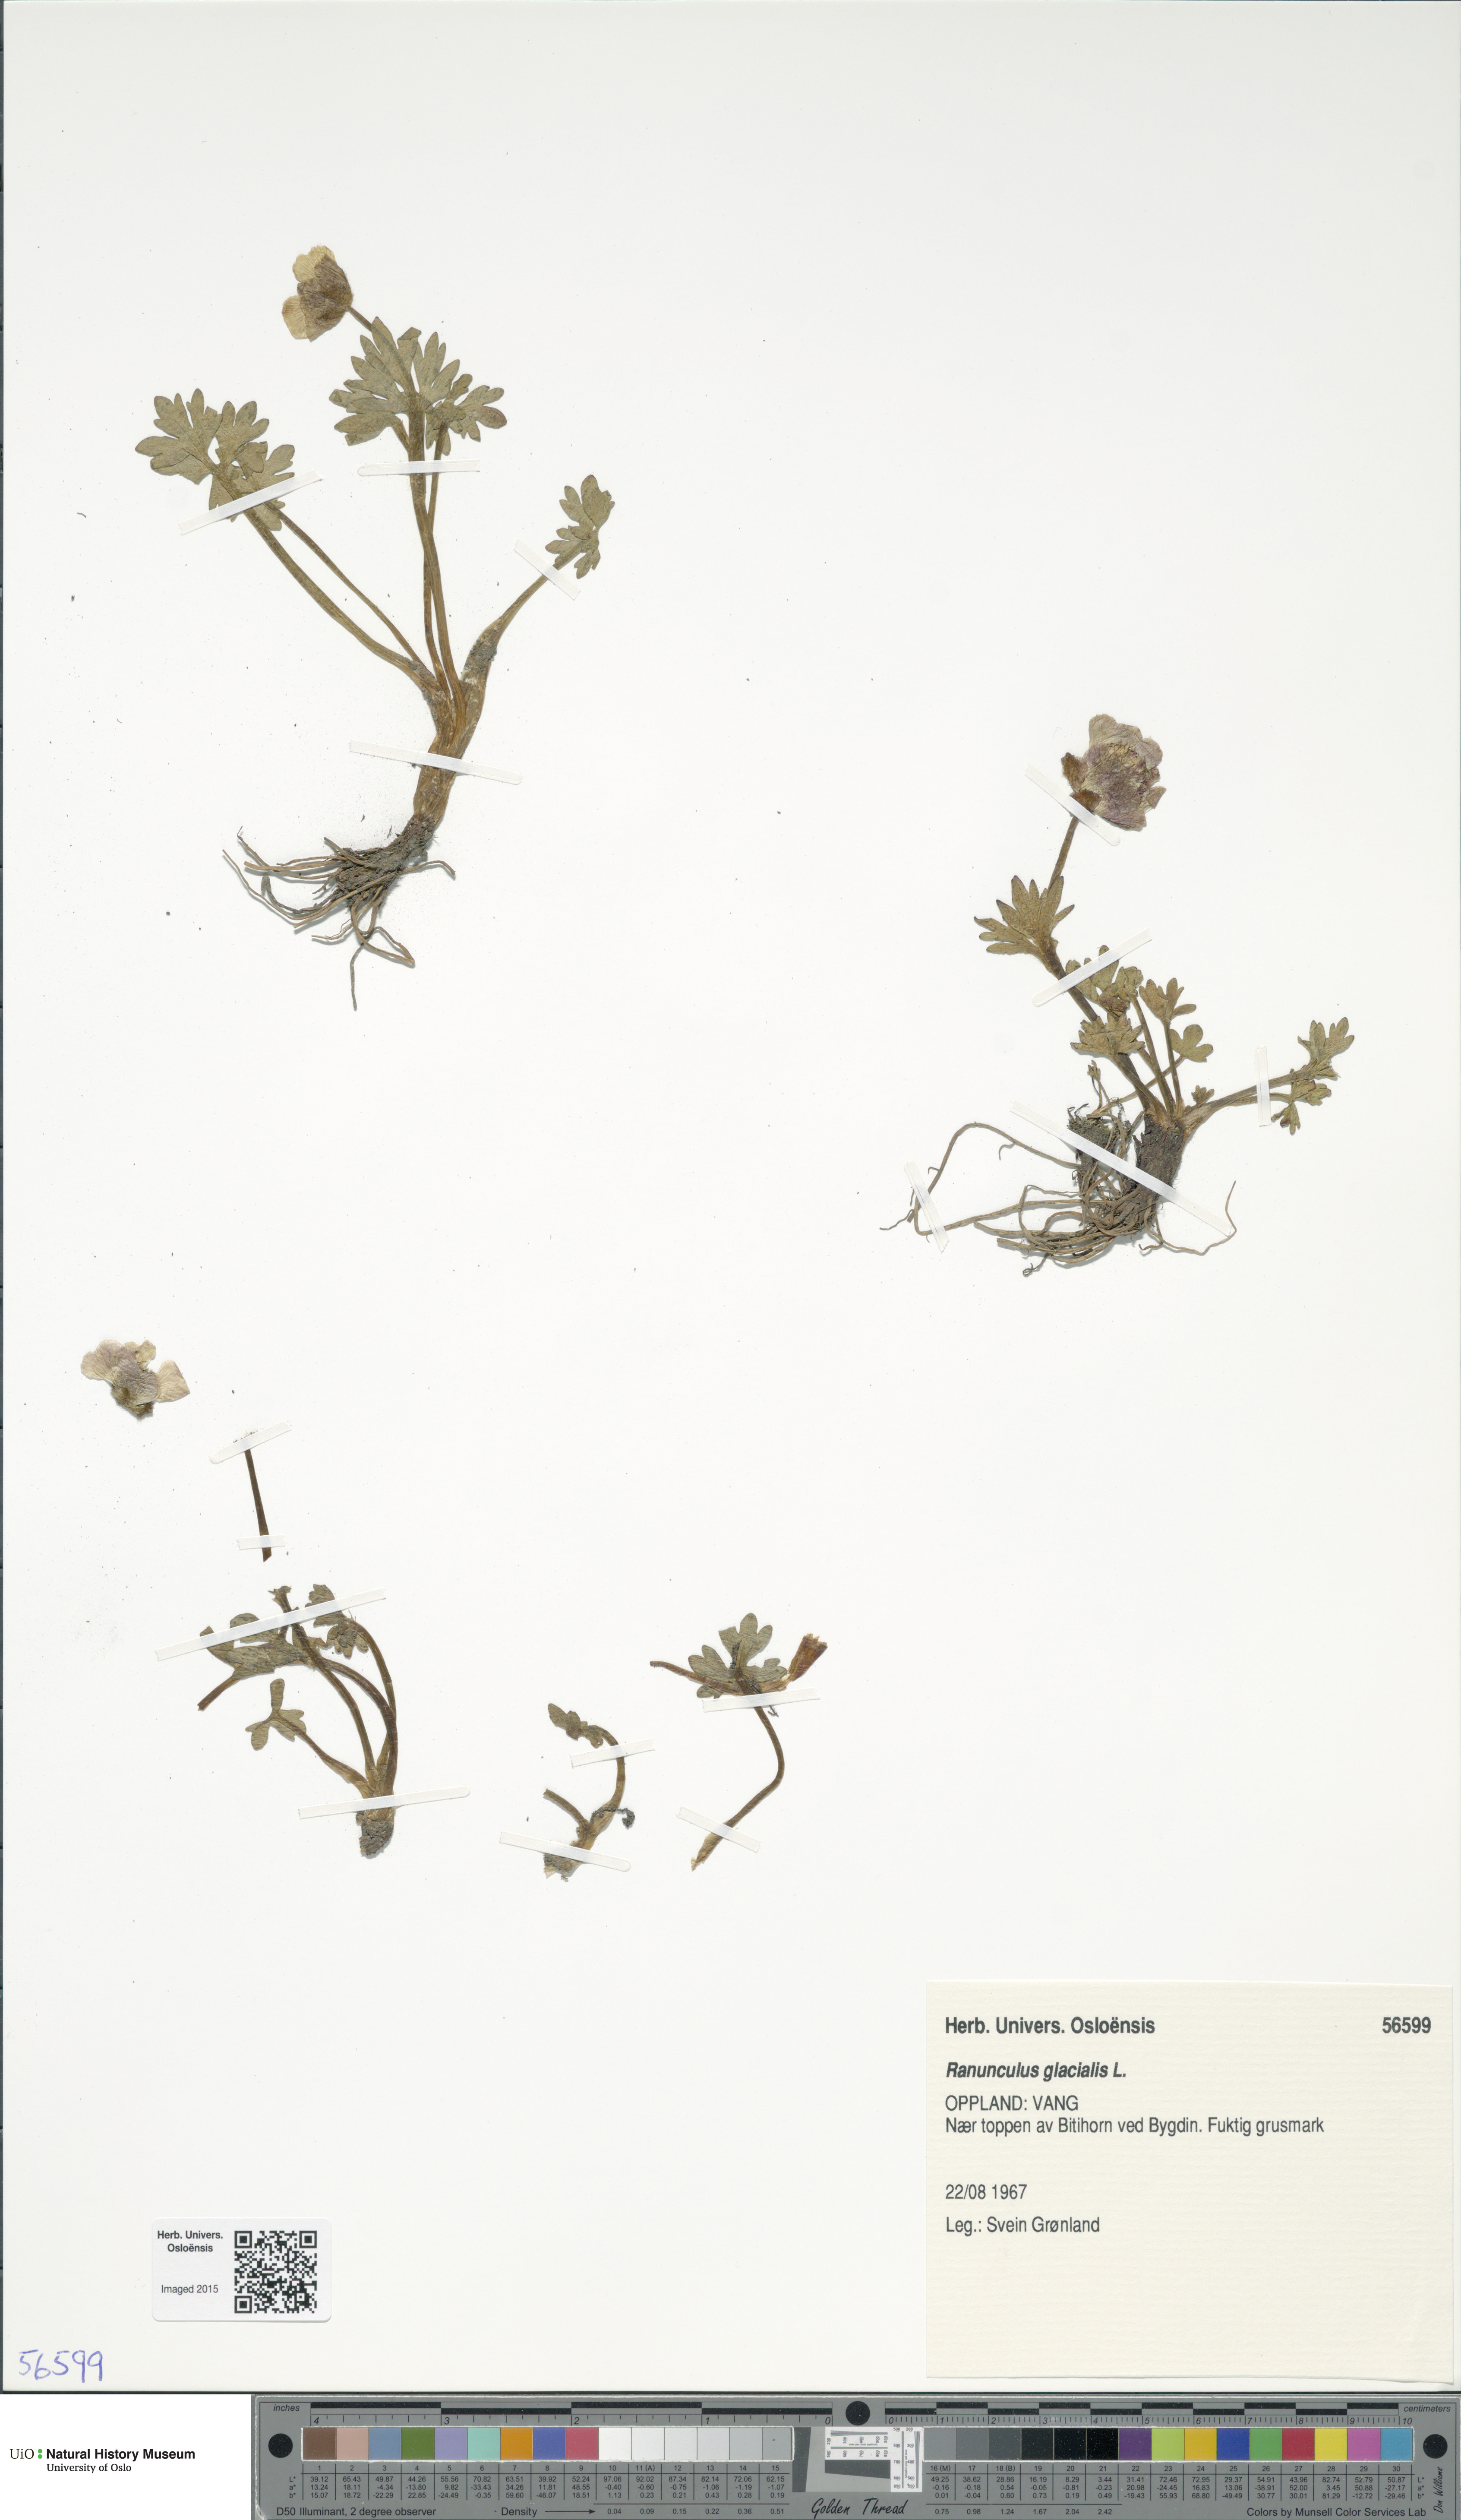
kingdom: Plantae
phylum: Tracheophyta
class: Magnoliopsida
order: Ranunculales
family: Ranunculaceae
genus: Ranunculus
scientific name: Ranunculus glacialis
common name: Glacier buttercup
